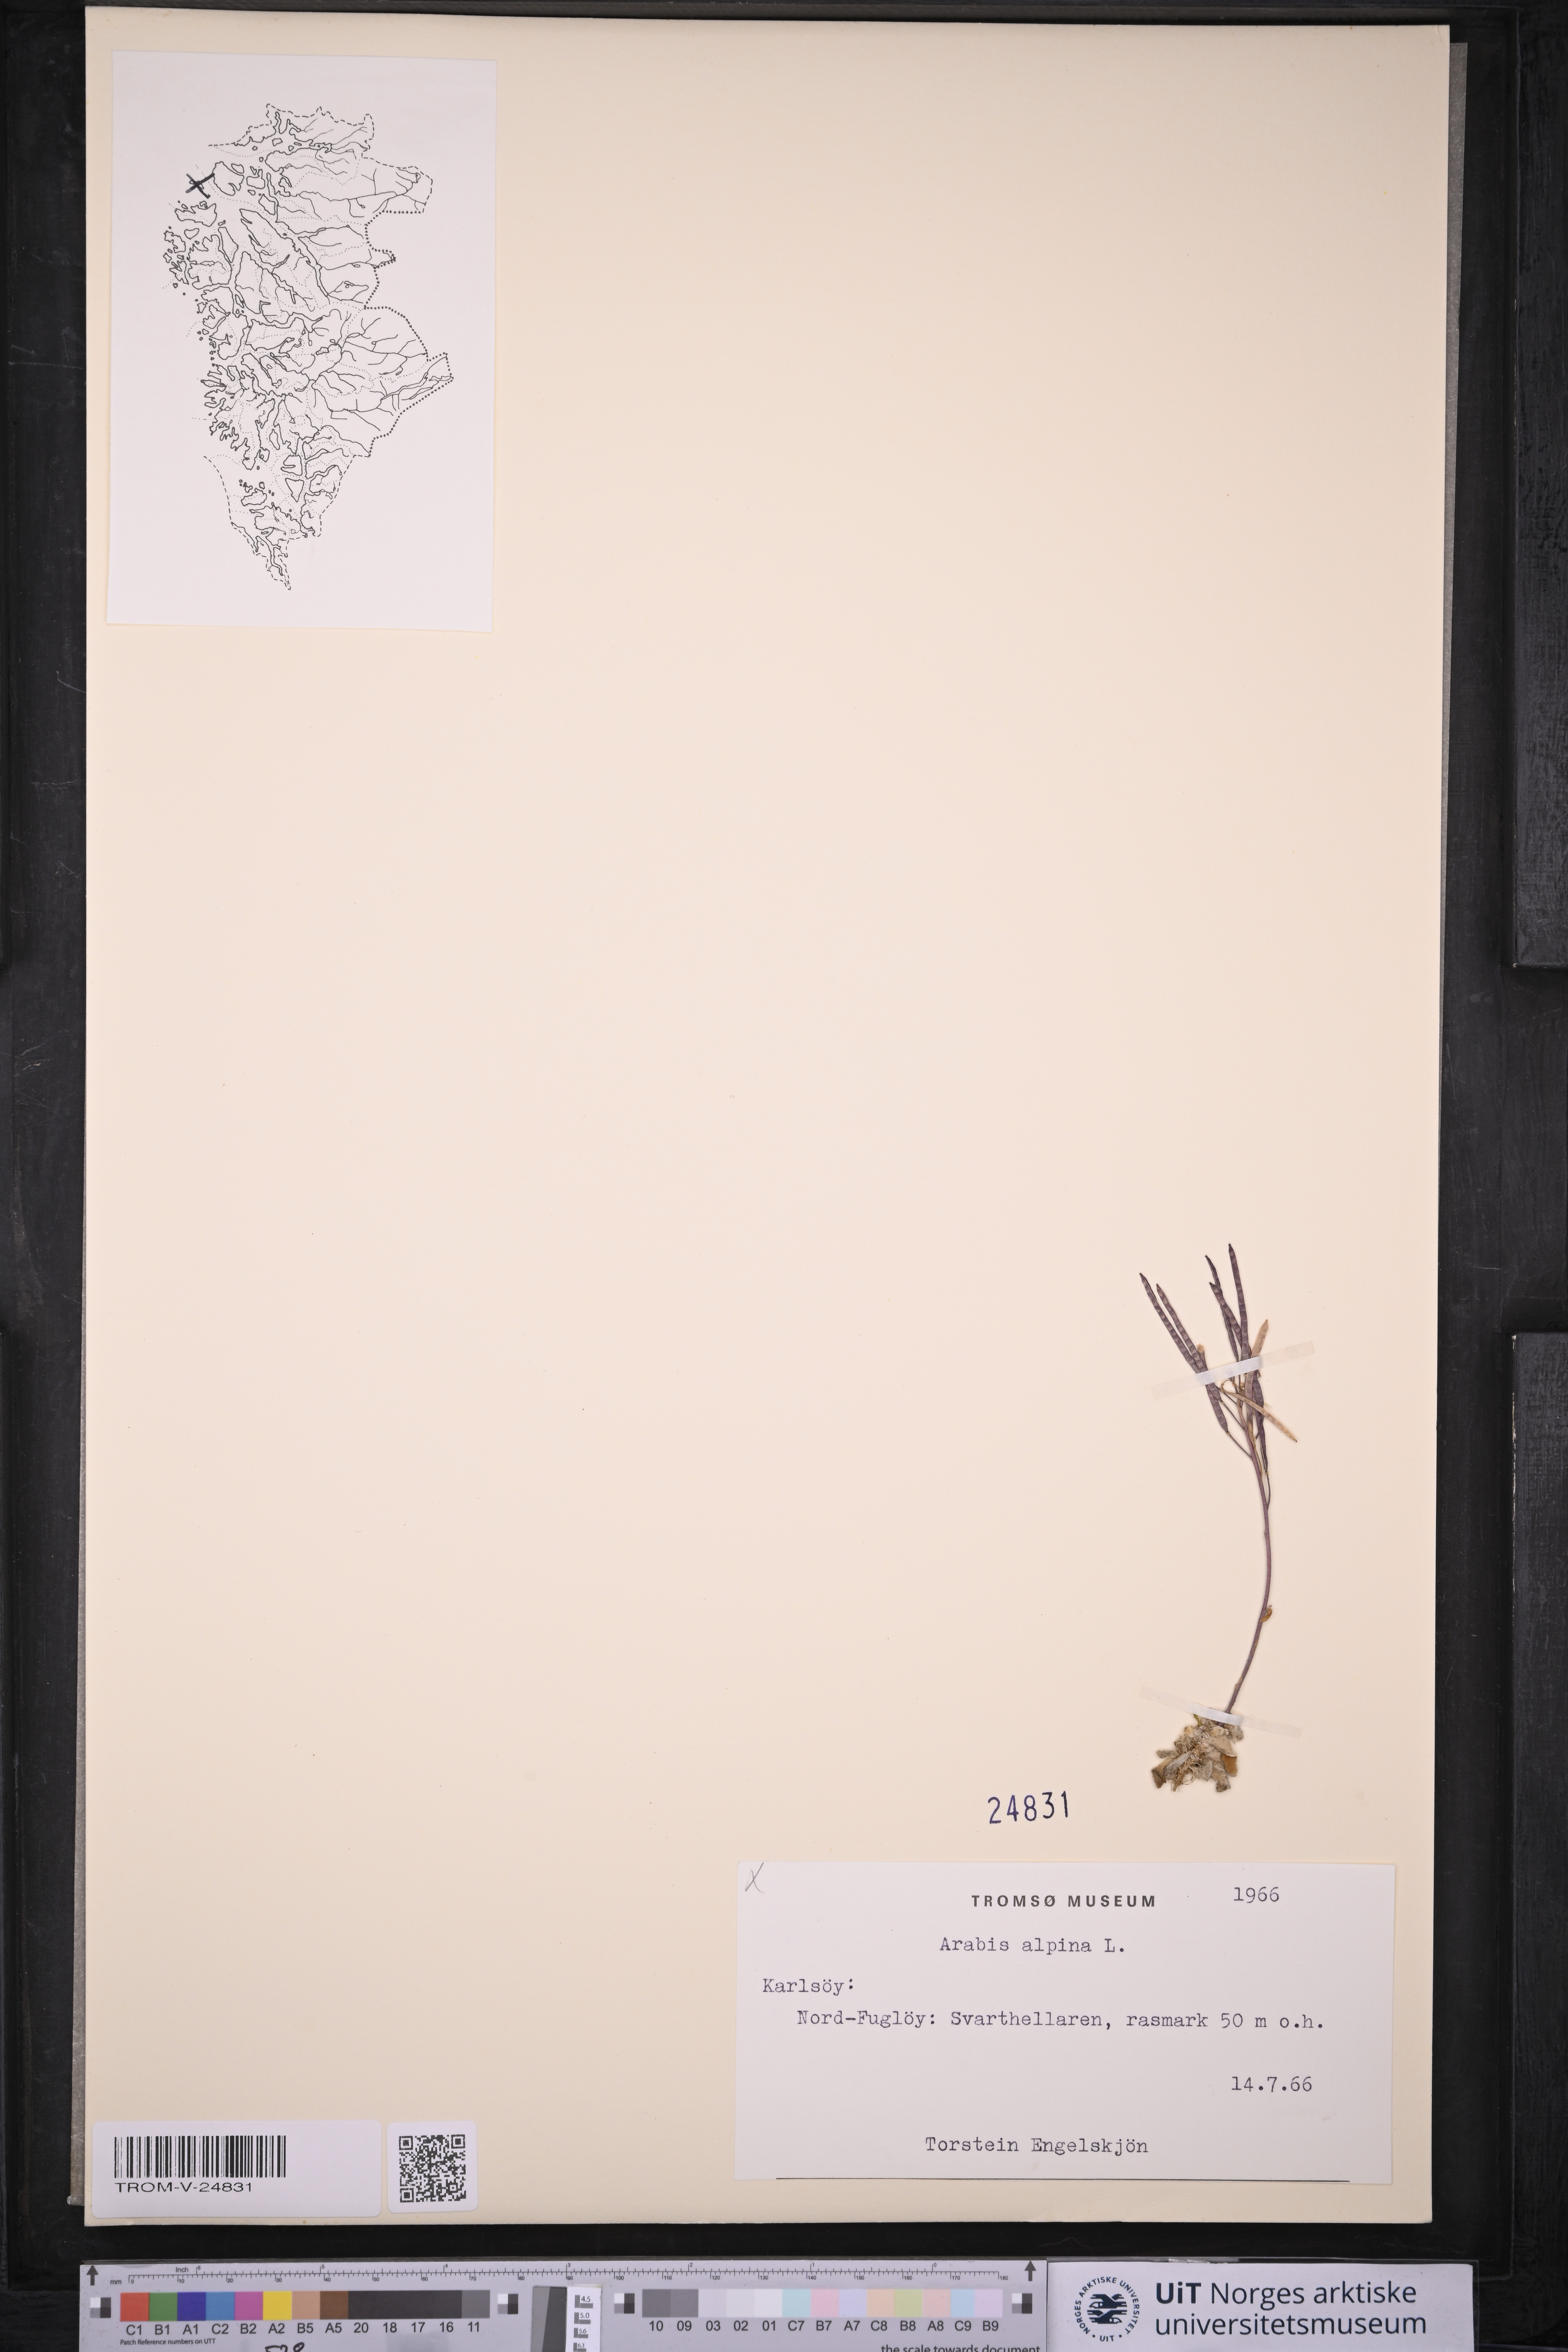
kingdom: Plantae
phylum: Tracheophyta
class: Magnoliopsida
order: Brassicales
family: Brassicaceae
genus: Arabis
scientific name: Arabis alpina
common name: Alpine rock-cress
